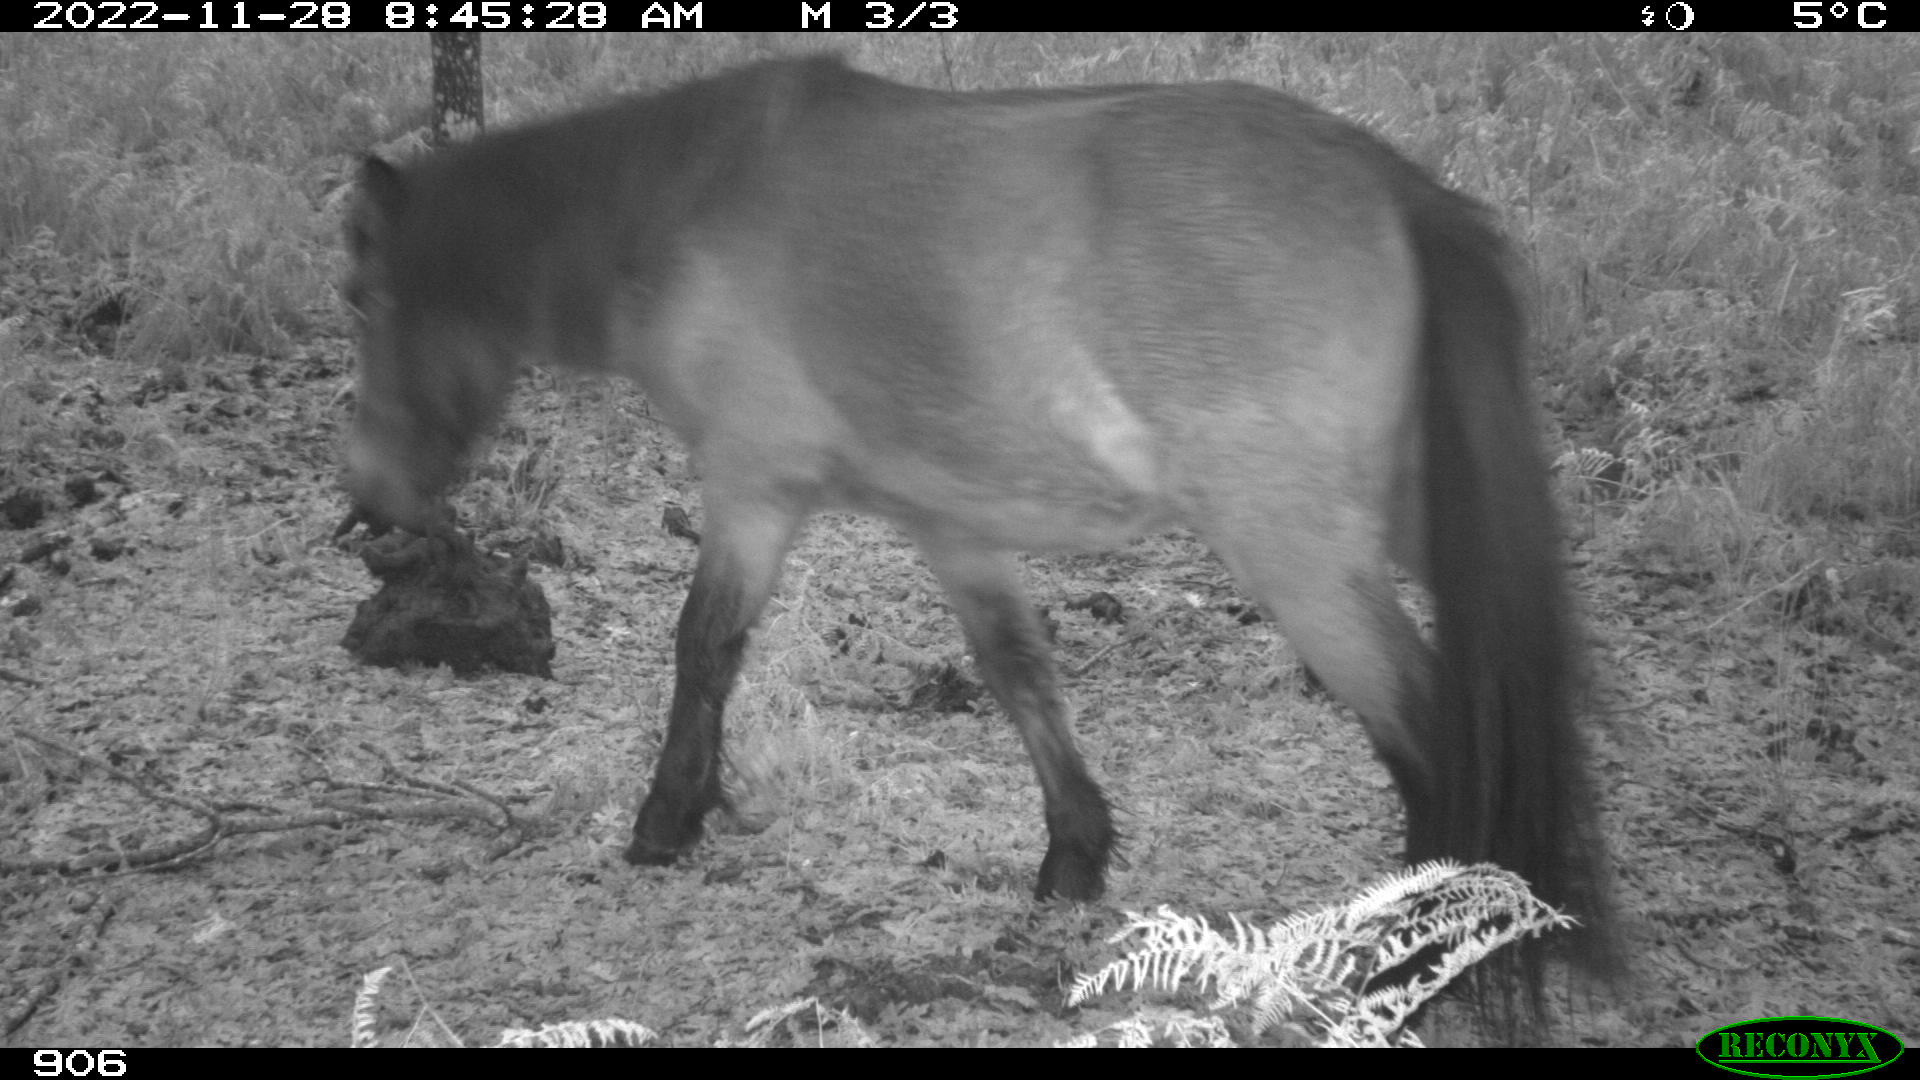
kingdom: Animalia
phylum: Chordata
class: Mammalia
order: Perissodactyla
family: Equidae
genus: Equus
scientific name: Equus caballus
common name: Horse
